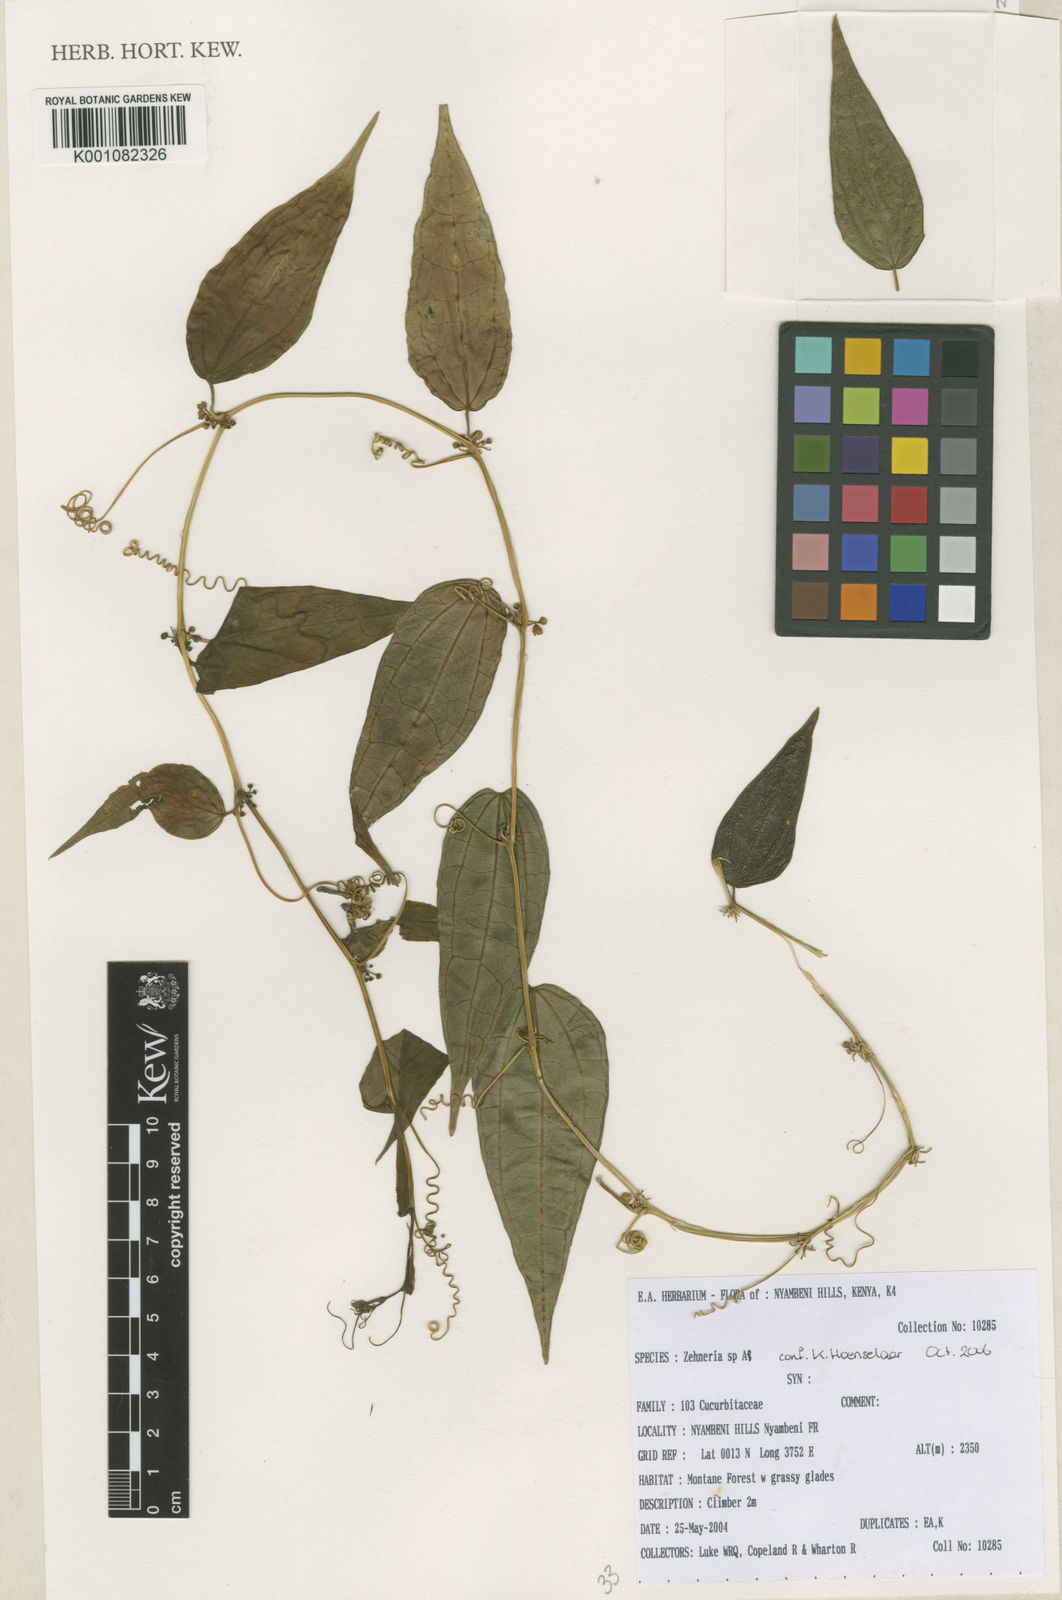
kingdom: Plantae
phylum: Tracheophyta
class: Magnoliopsida
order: Cucurbitales
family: Cucurbitaceae
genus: Zehneria
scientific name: Zehneria
